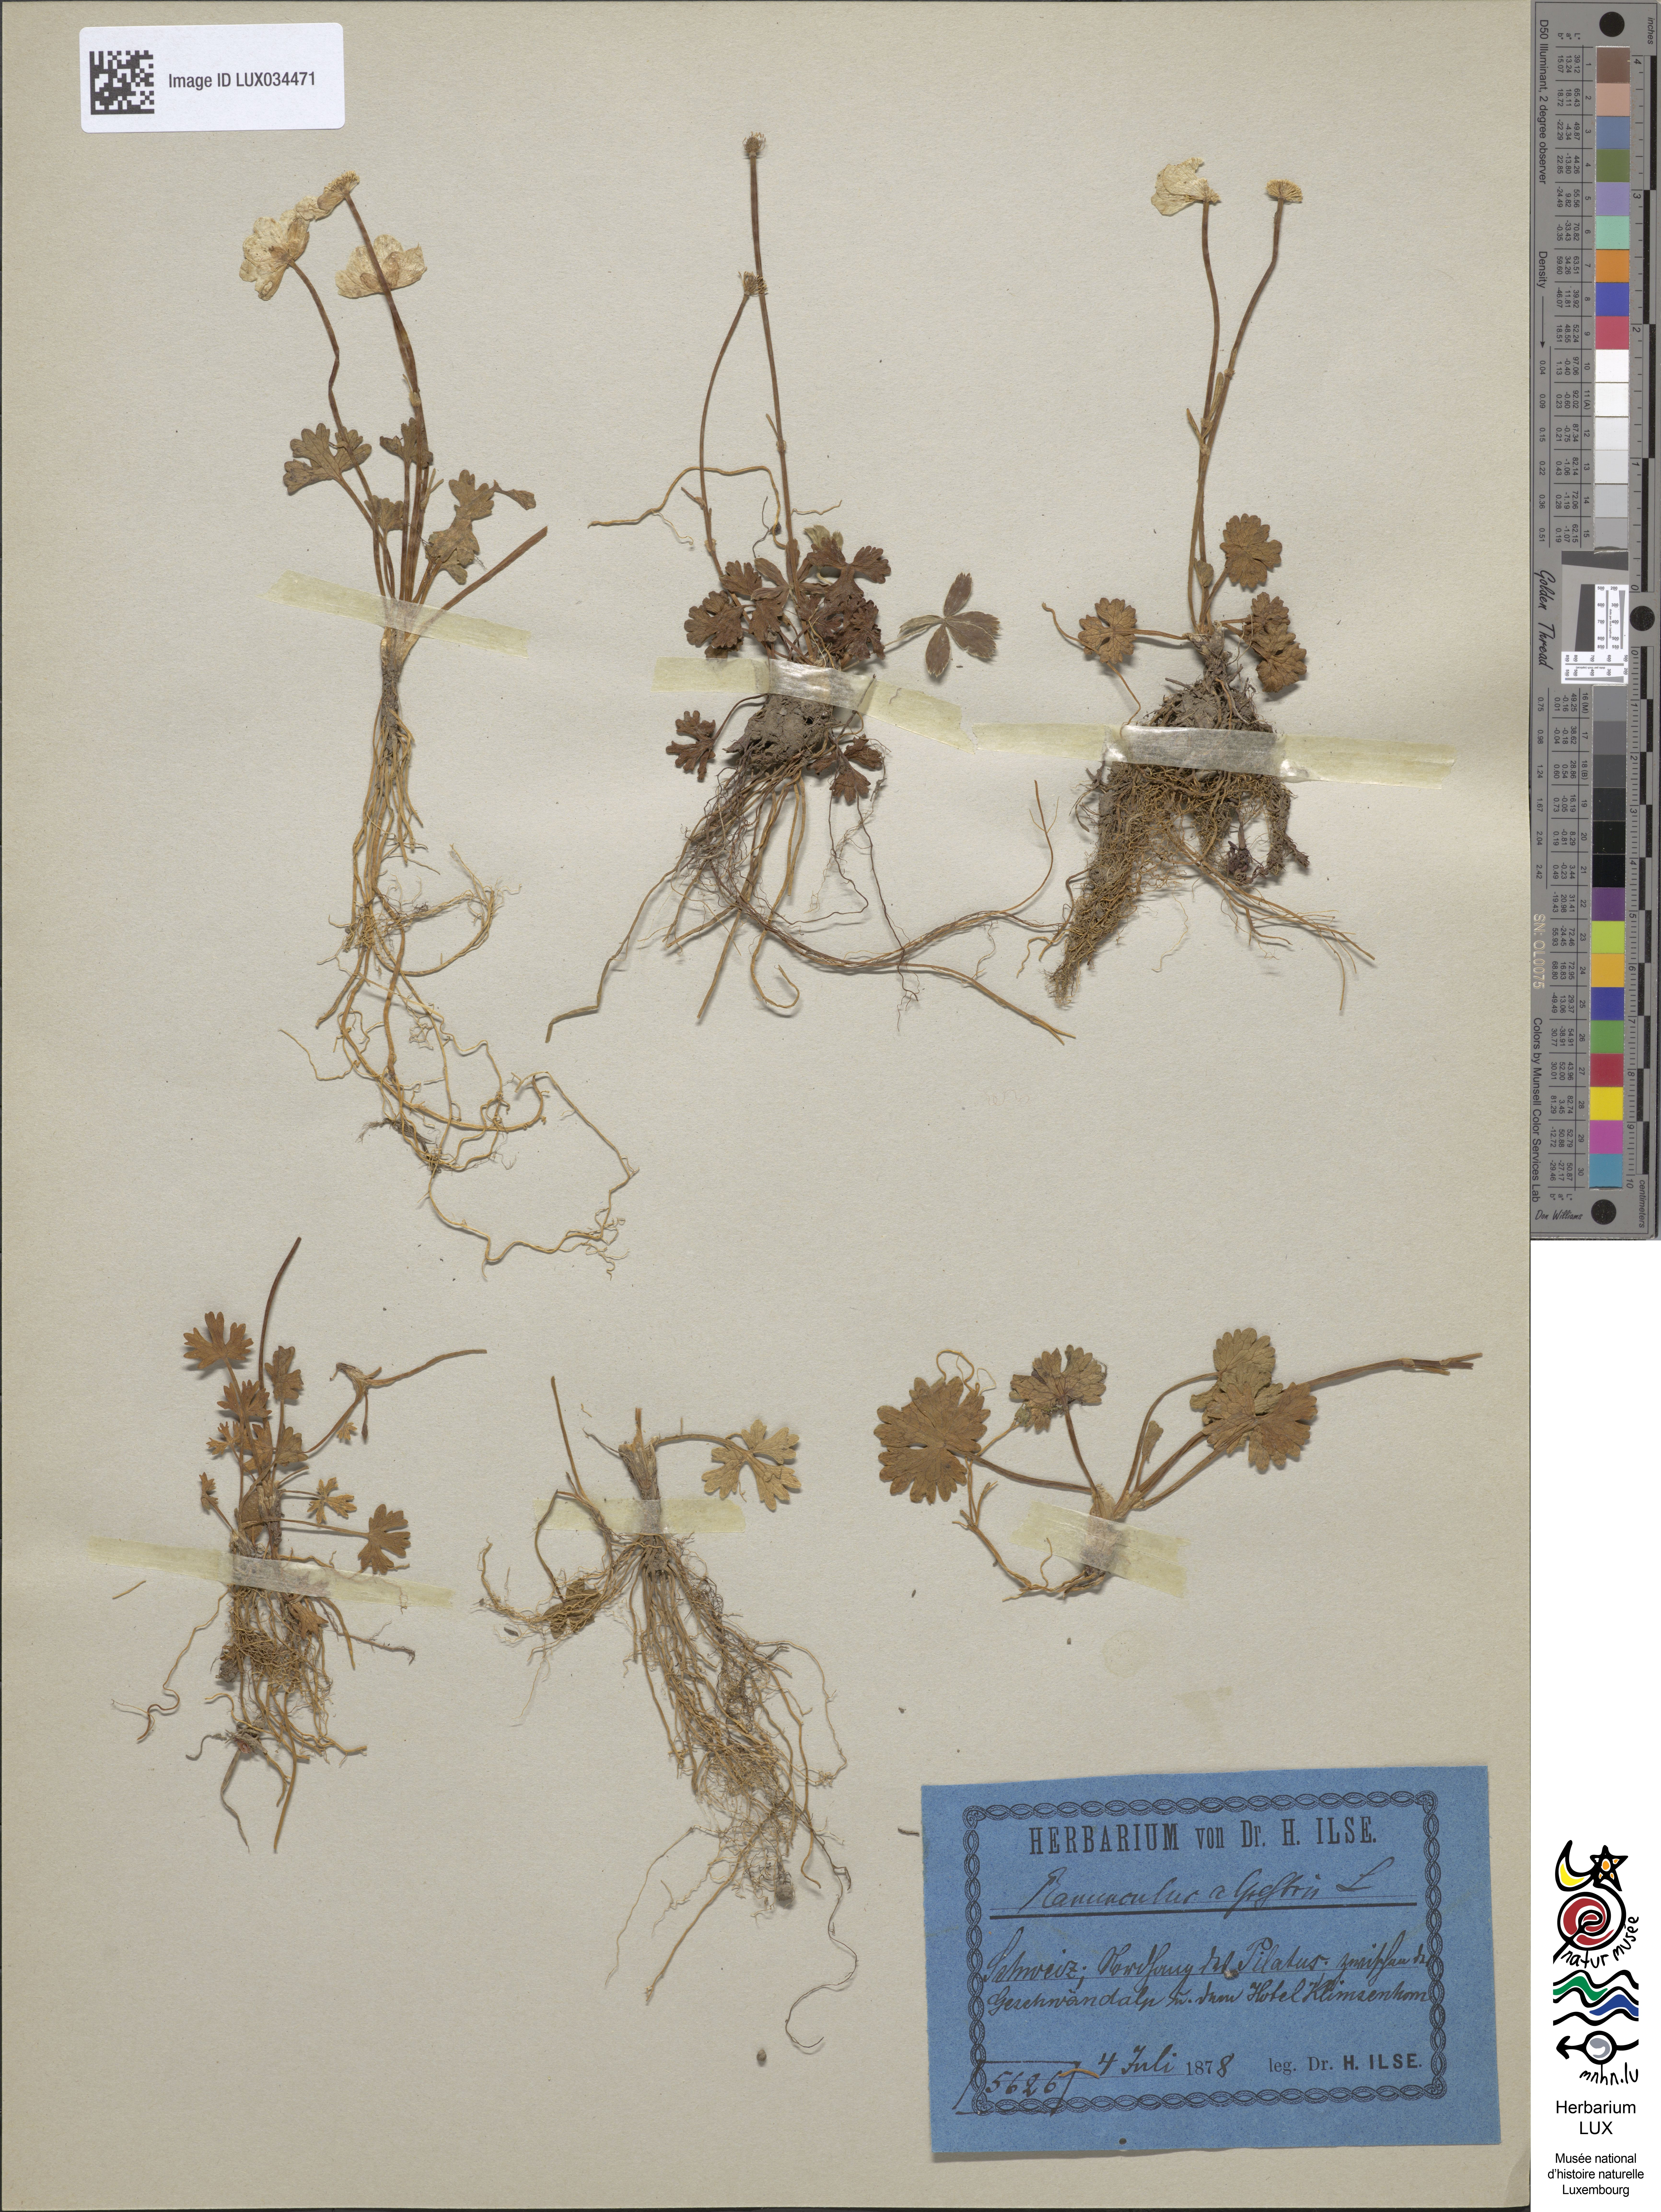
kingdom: Plantae
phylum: Tracheophyta
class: Magnoliopsida
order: Ranunculales
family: Ranunculaceae
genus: Ranunculus
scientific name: Ranunculus alpestris
